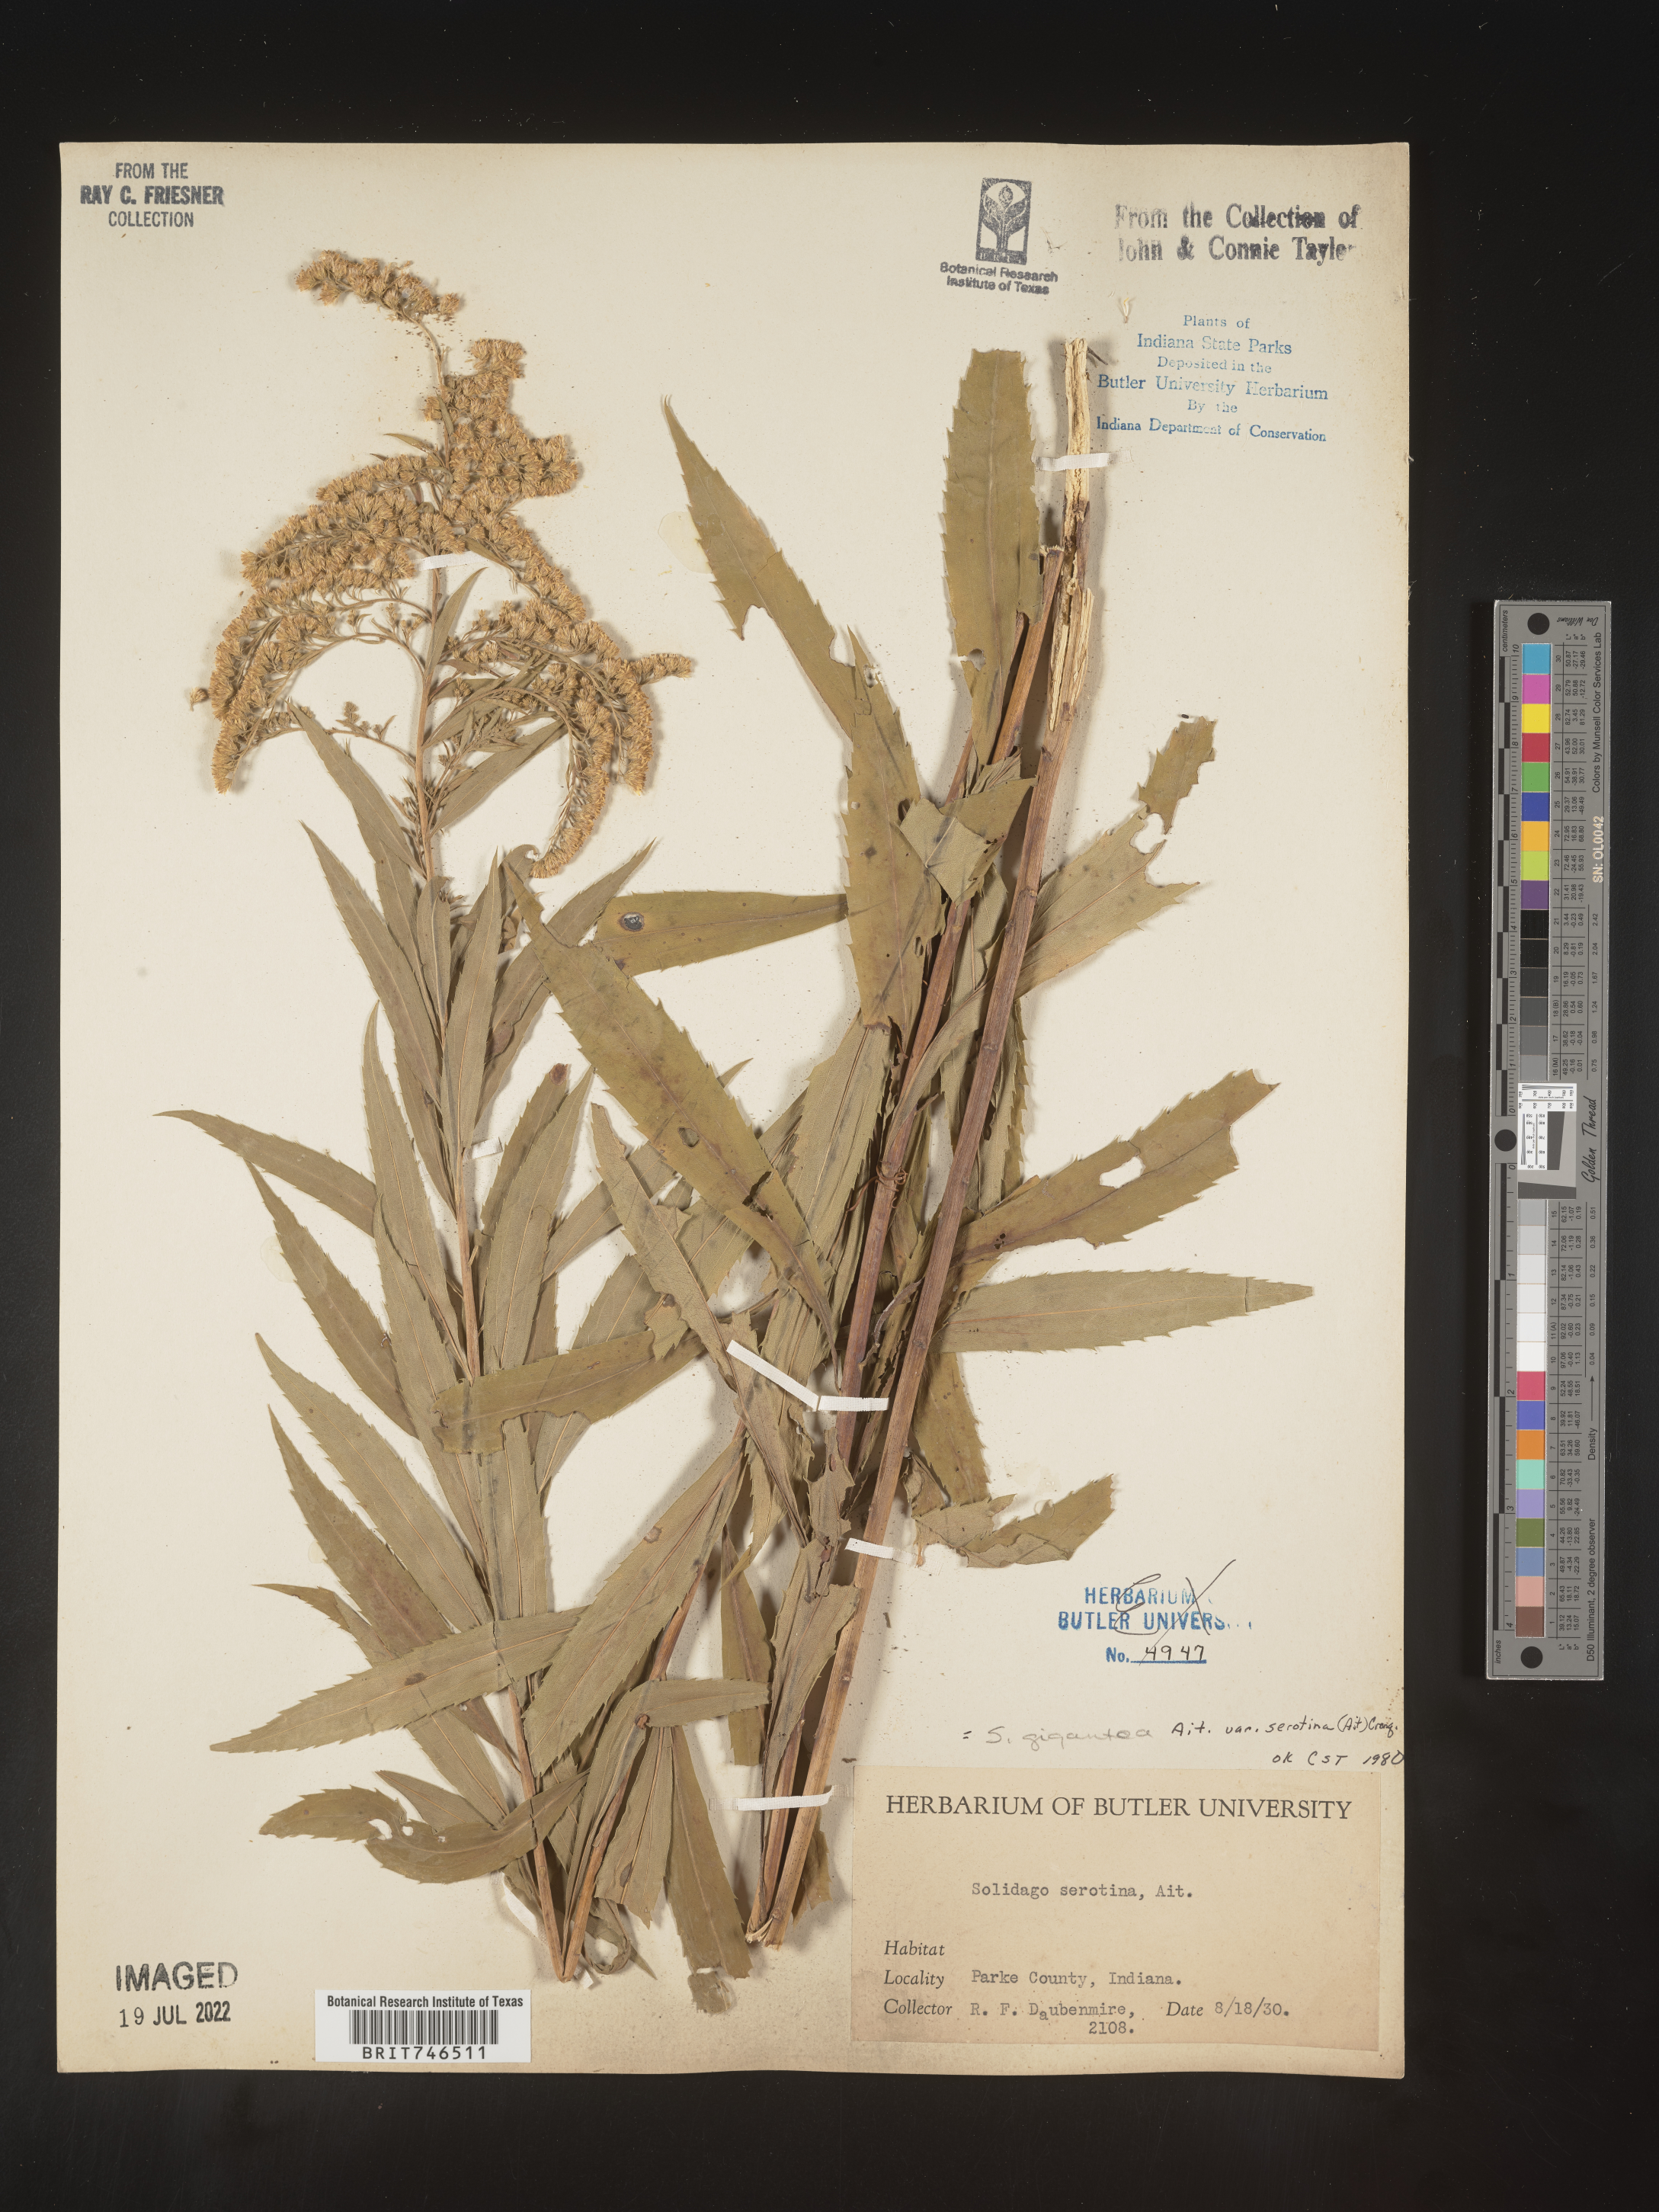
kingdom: Plantae
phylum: Tracheophyta
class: Magnoliopsida
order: Asterales
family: Asteraceae
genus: Solidago
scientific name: Solidago gigantea
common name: Giant goldenrod
